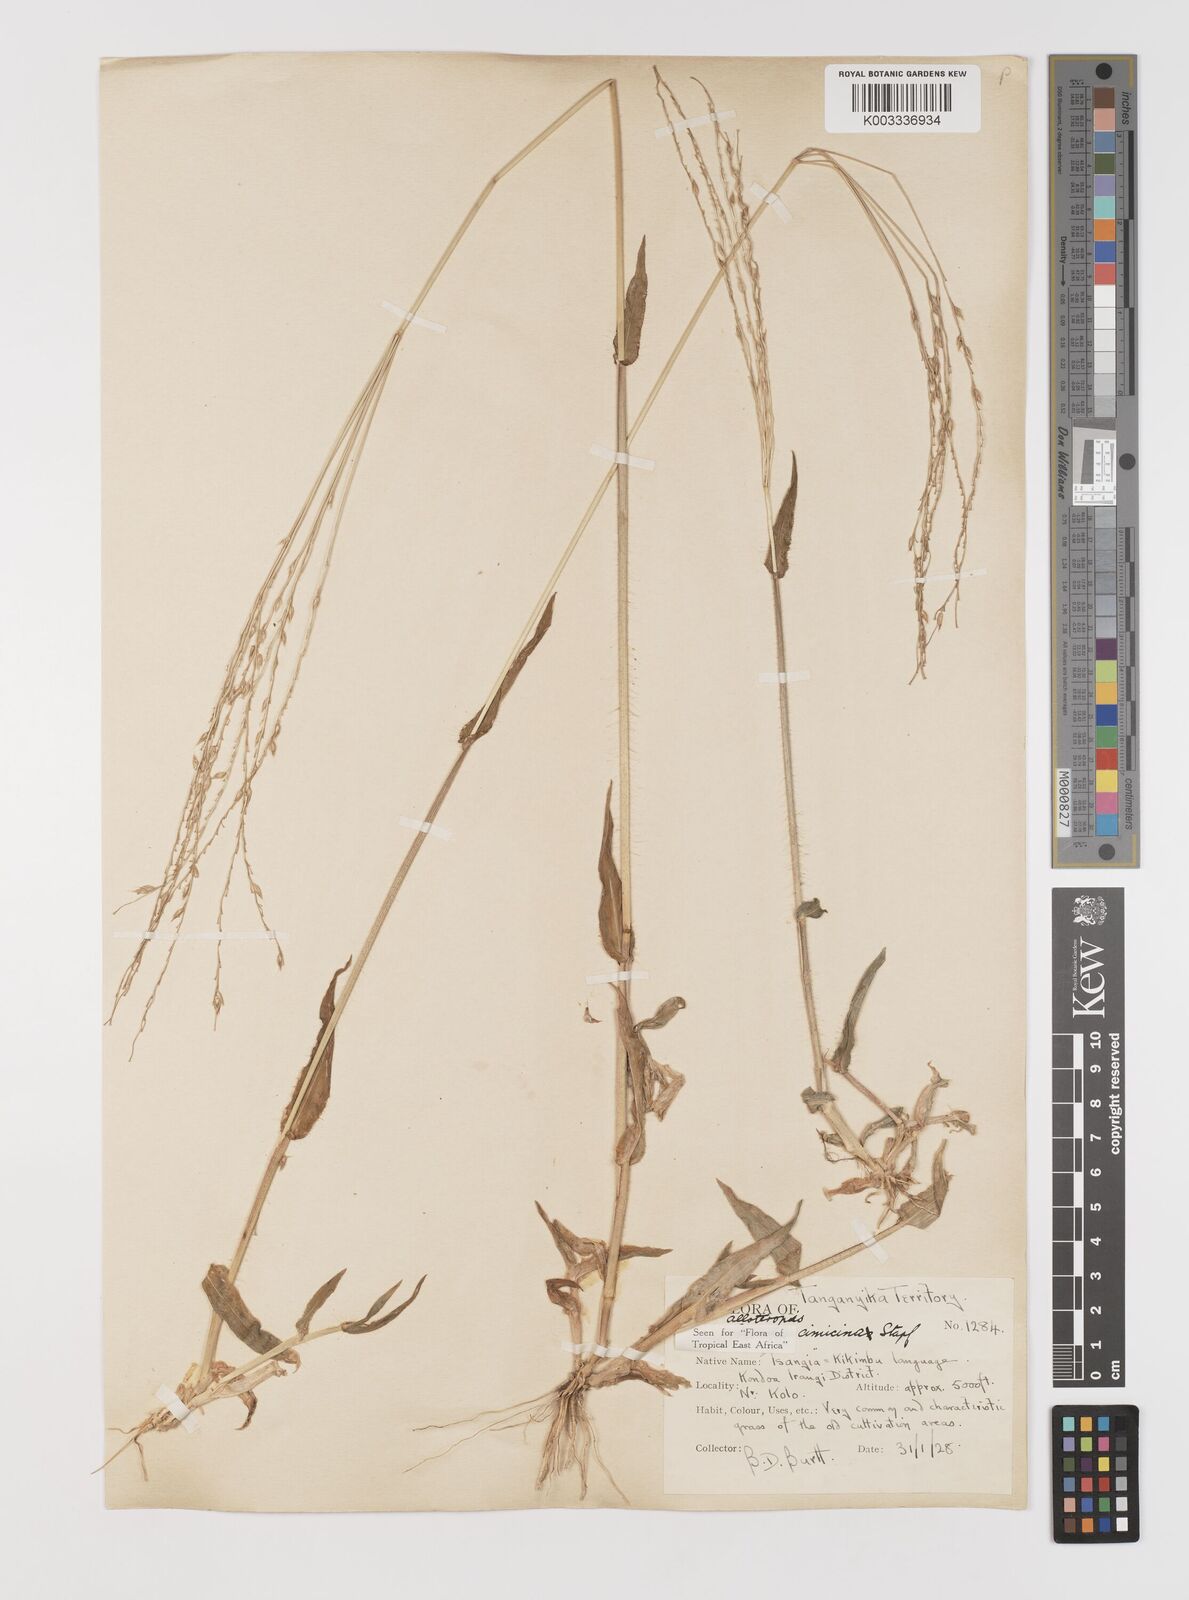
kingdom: Plantae
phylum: Tracheophyta
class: Liliopsida
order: Poales
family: Poaceae
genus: Alloteropsis
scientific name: Alloteropsis cimicina
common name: Summergrass
